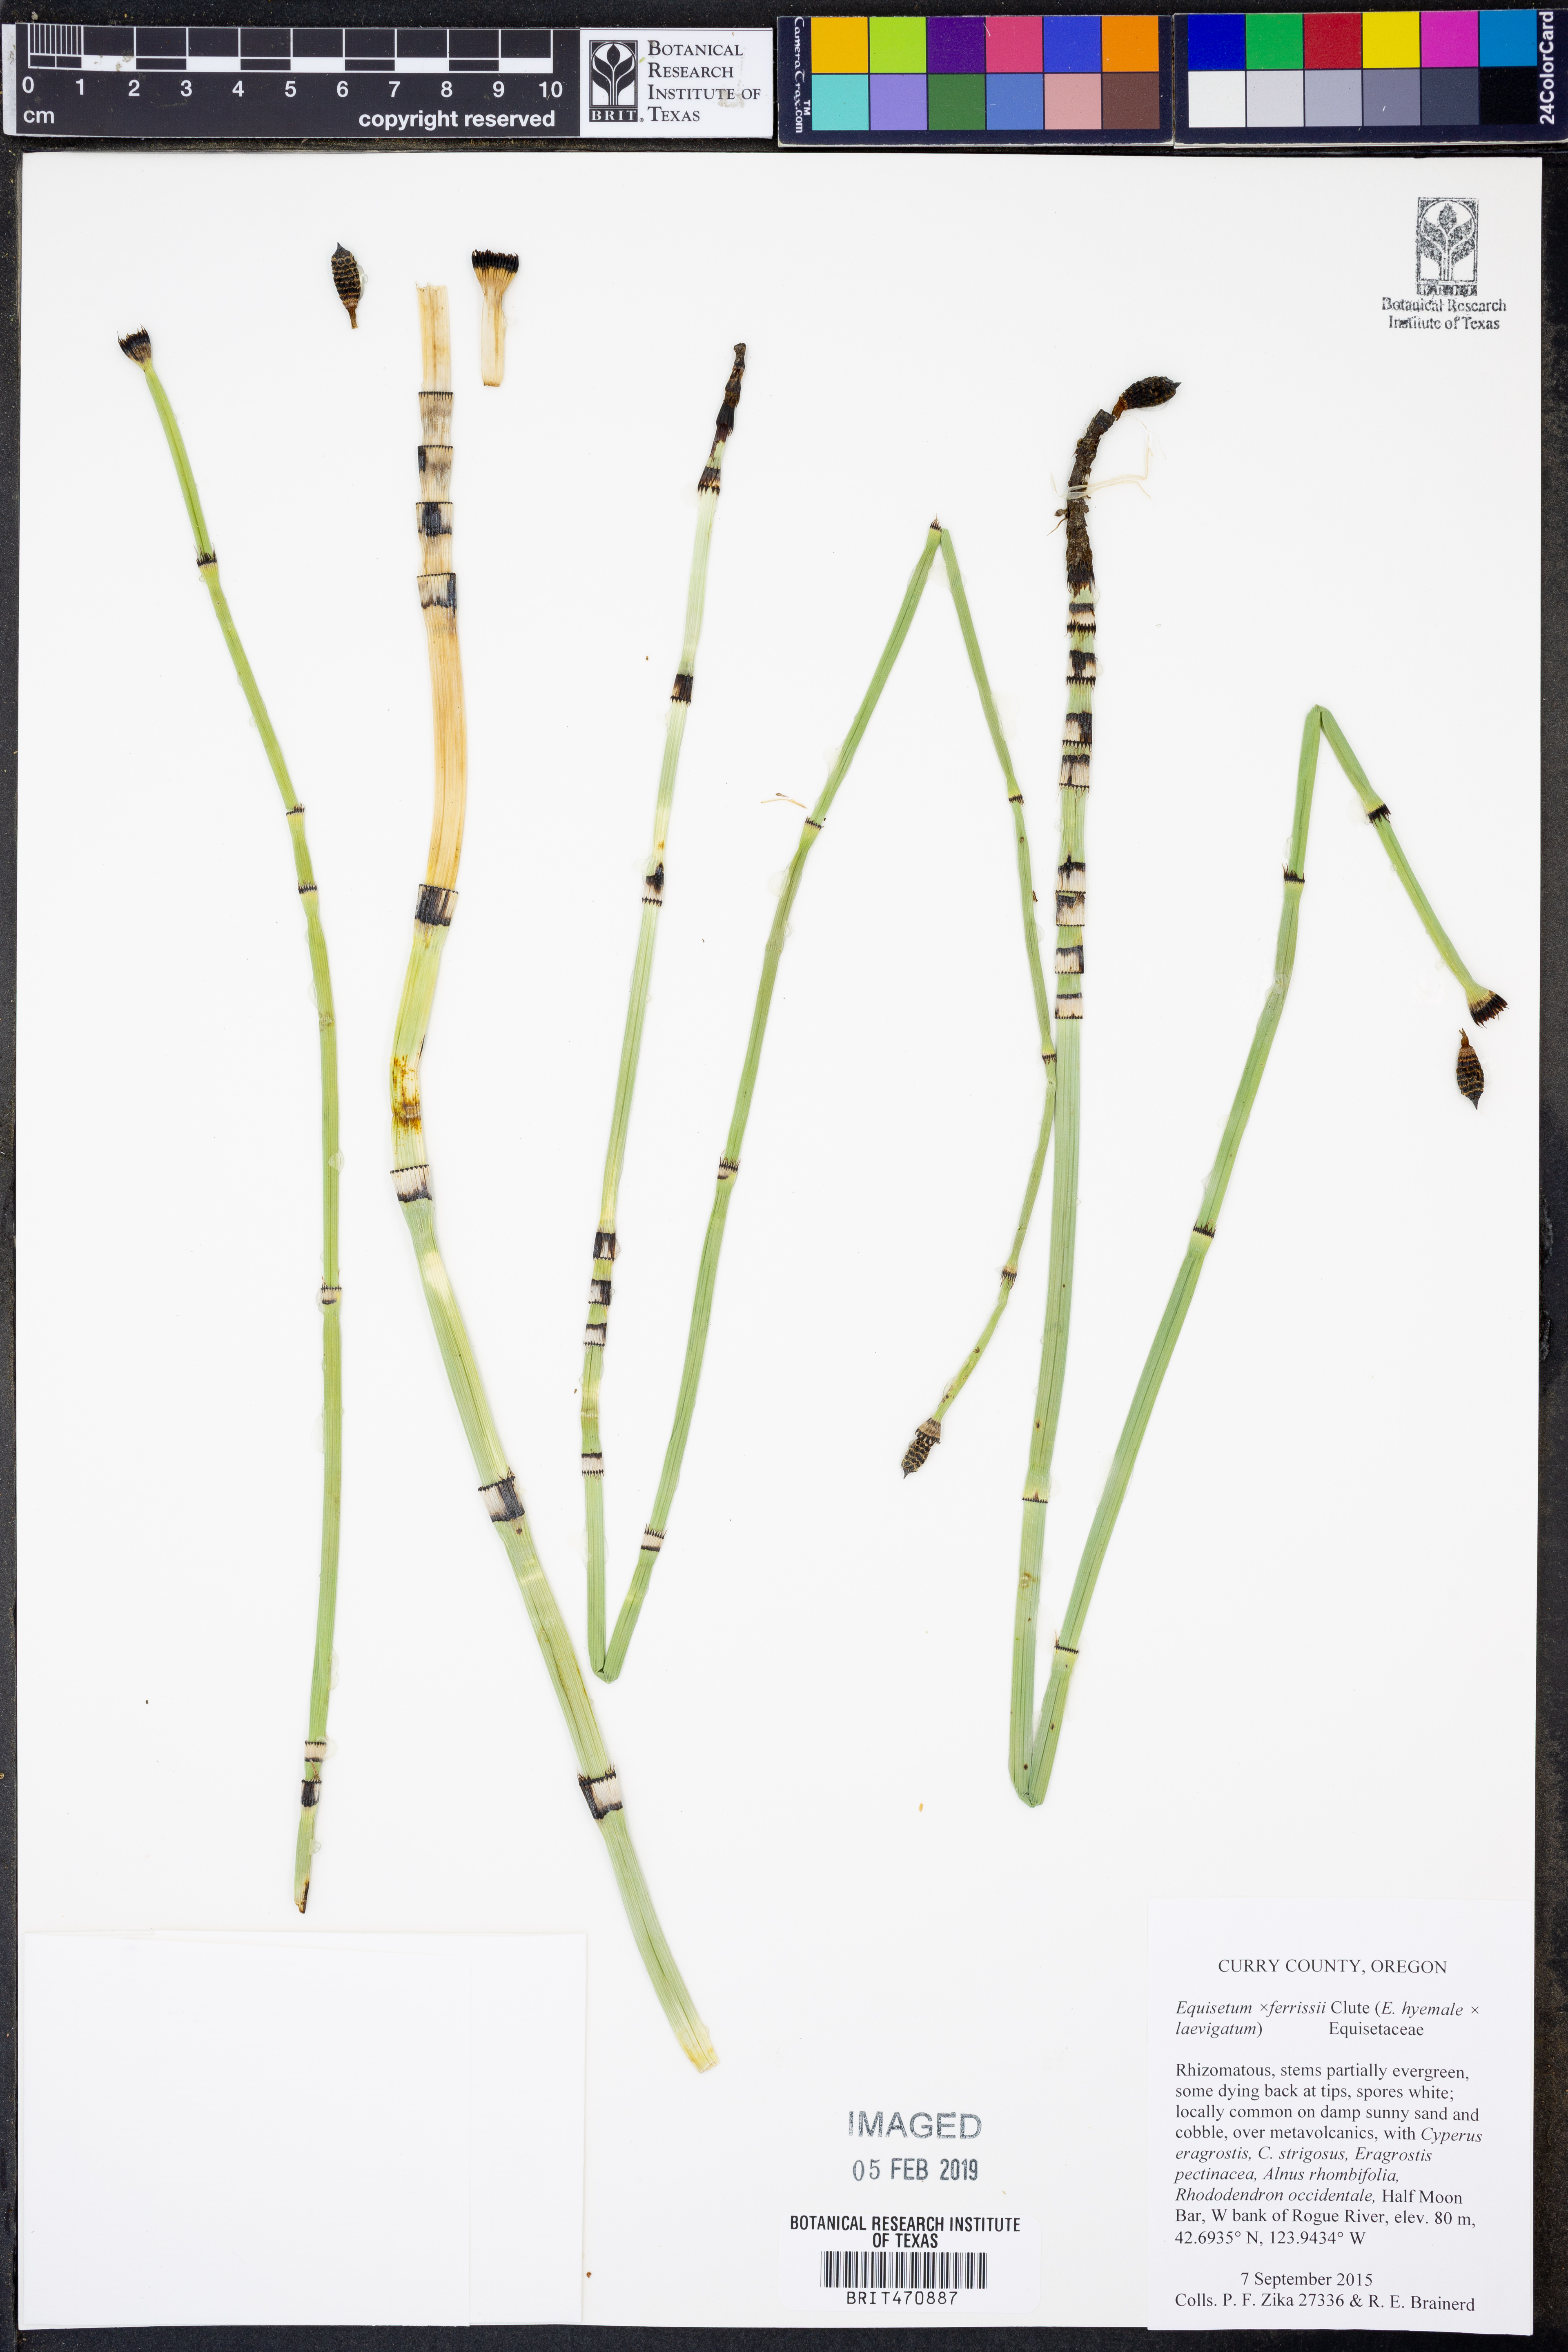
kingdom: Plantae
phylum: Tracheophyta
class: Polypodiopsida
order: Equisetales
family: Equisetaceae
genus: Equisetum
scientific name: Equisetum ferrissii
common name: Ferriss' horsetail
